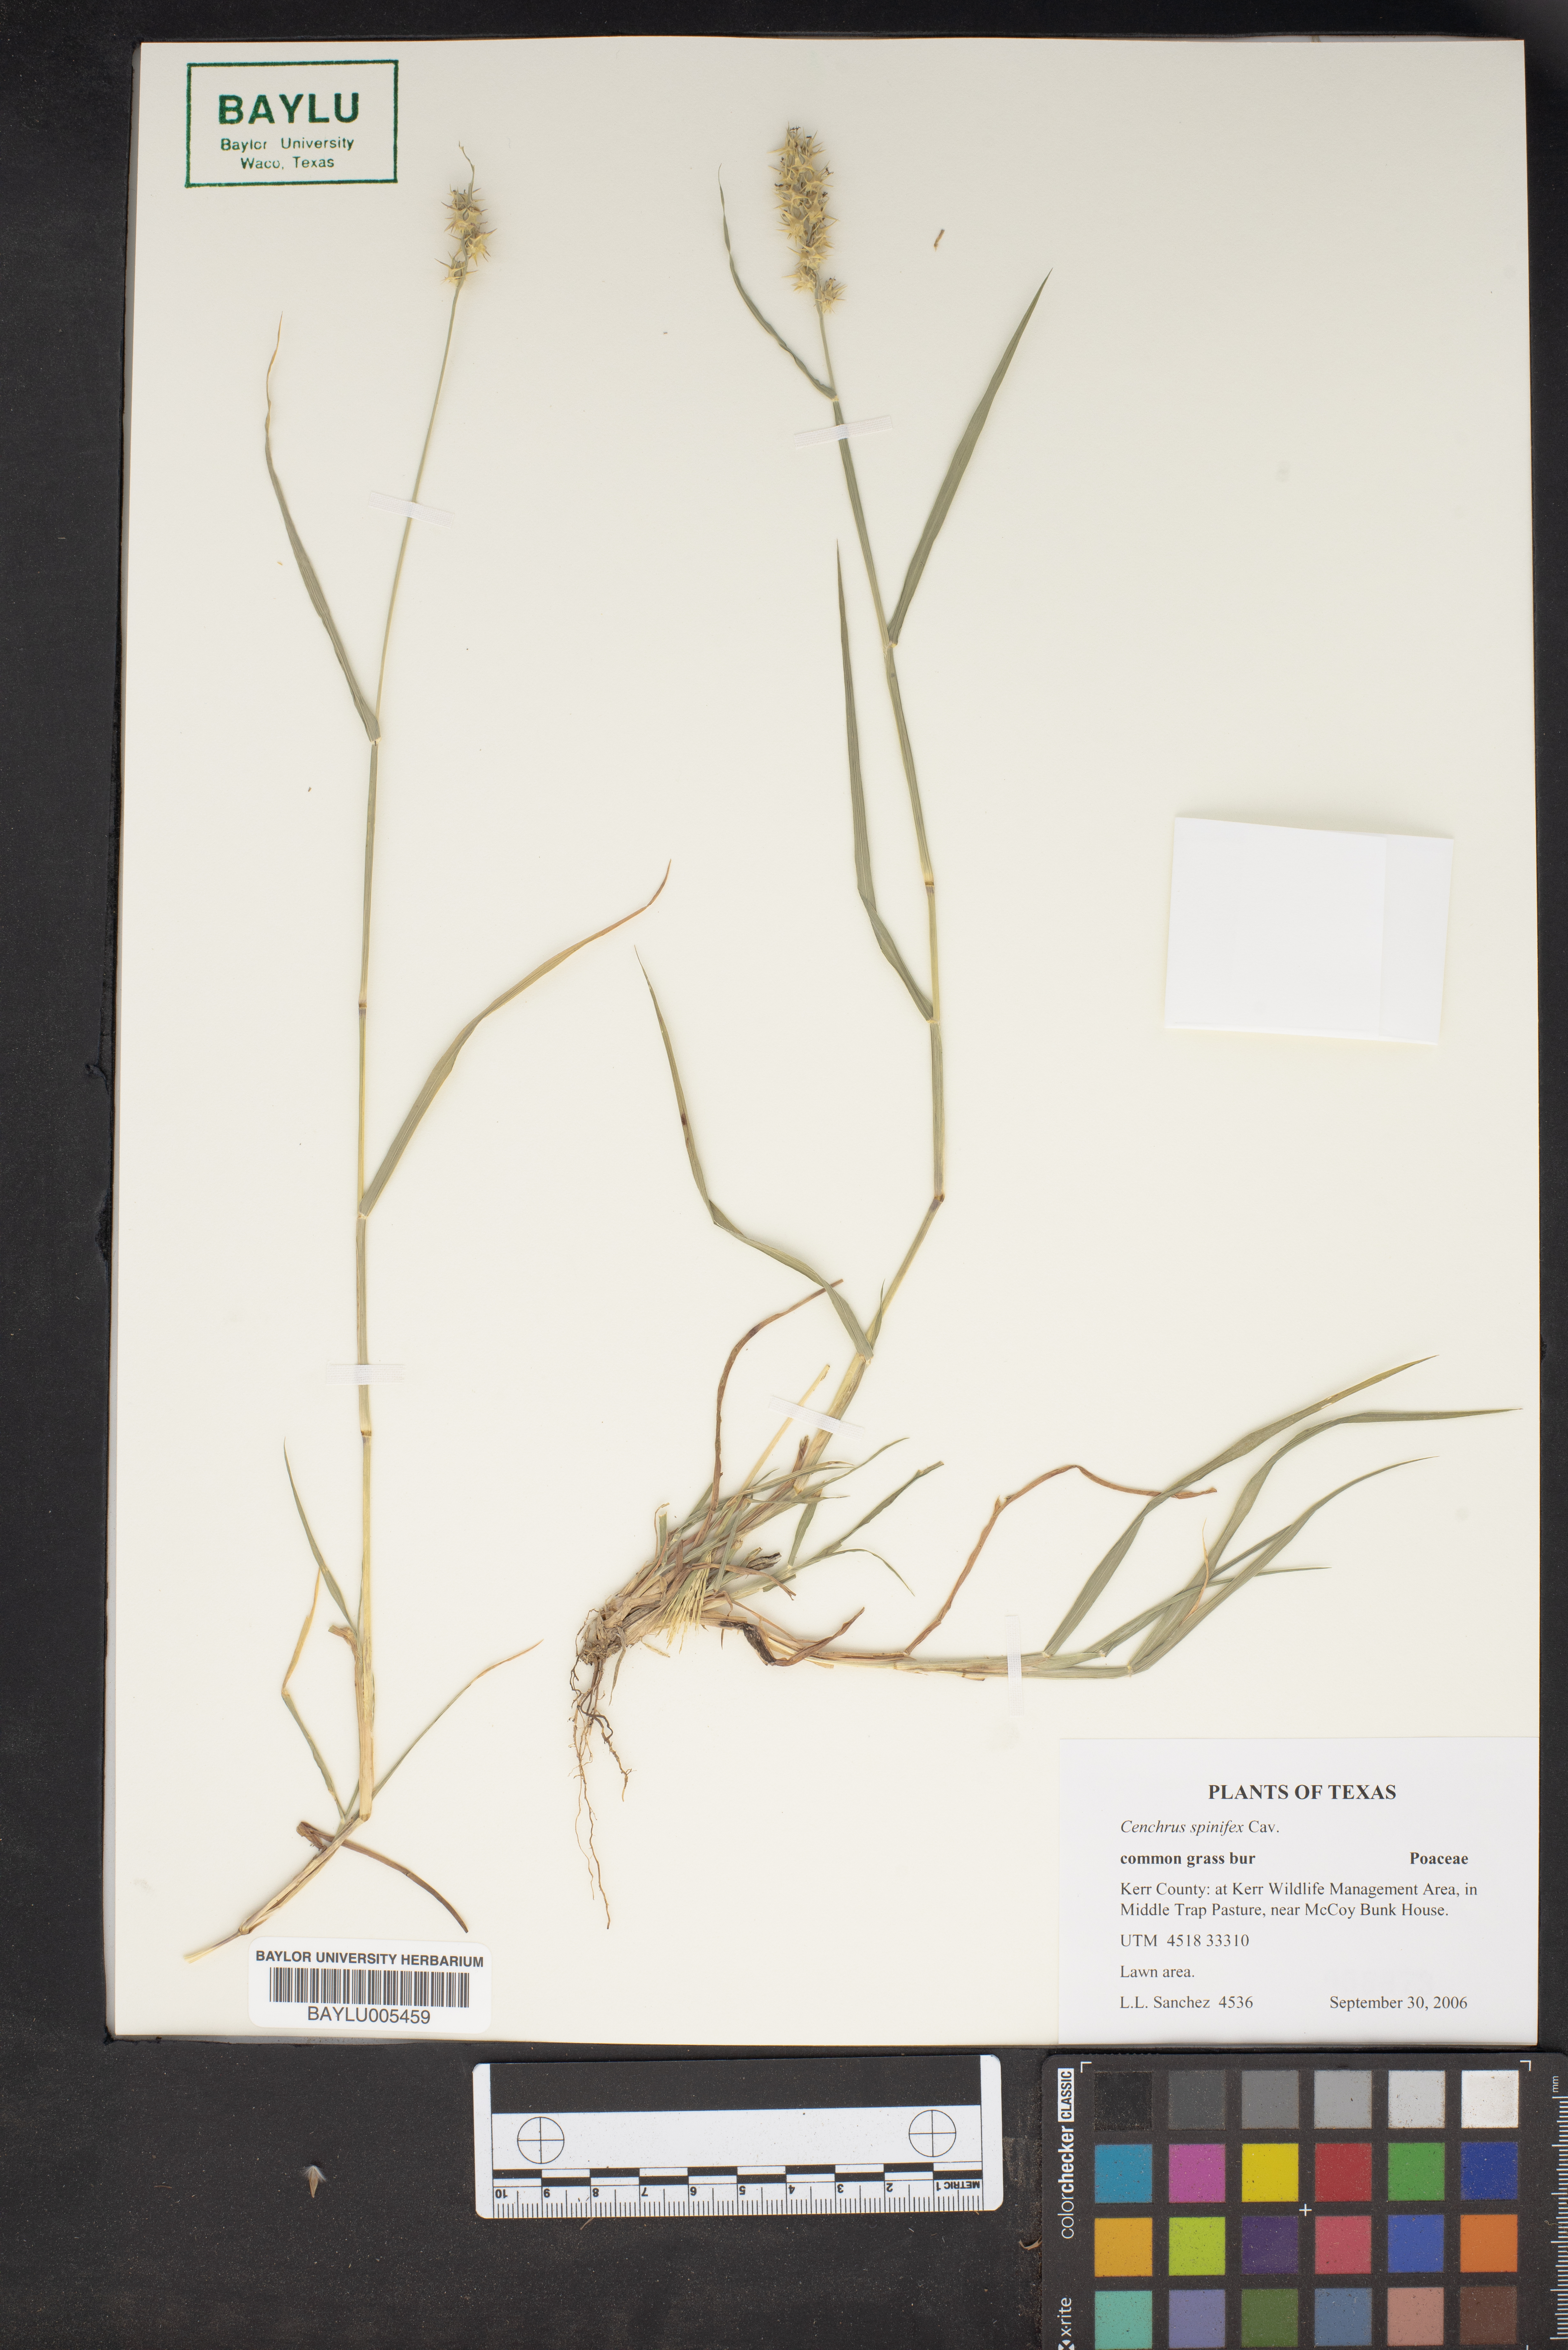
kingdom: Plantae
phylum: Tracheophyta
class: Liliopsida
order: Poales
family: Poaceae
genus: Cenchrus
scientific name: Cenchrus spinifex
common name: Coast sandbur
